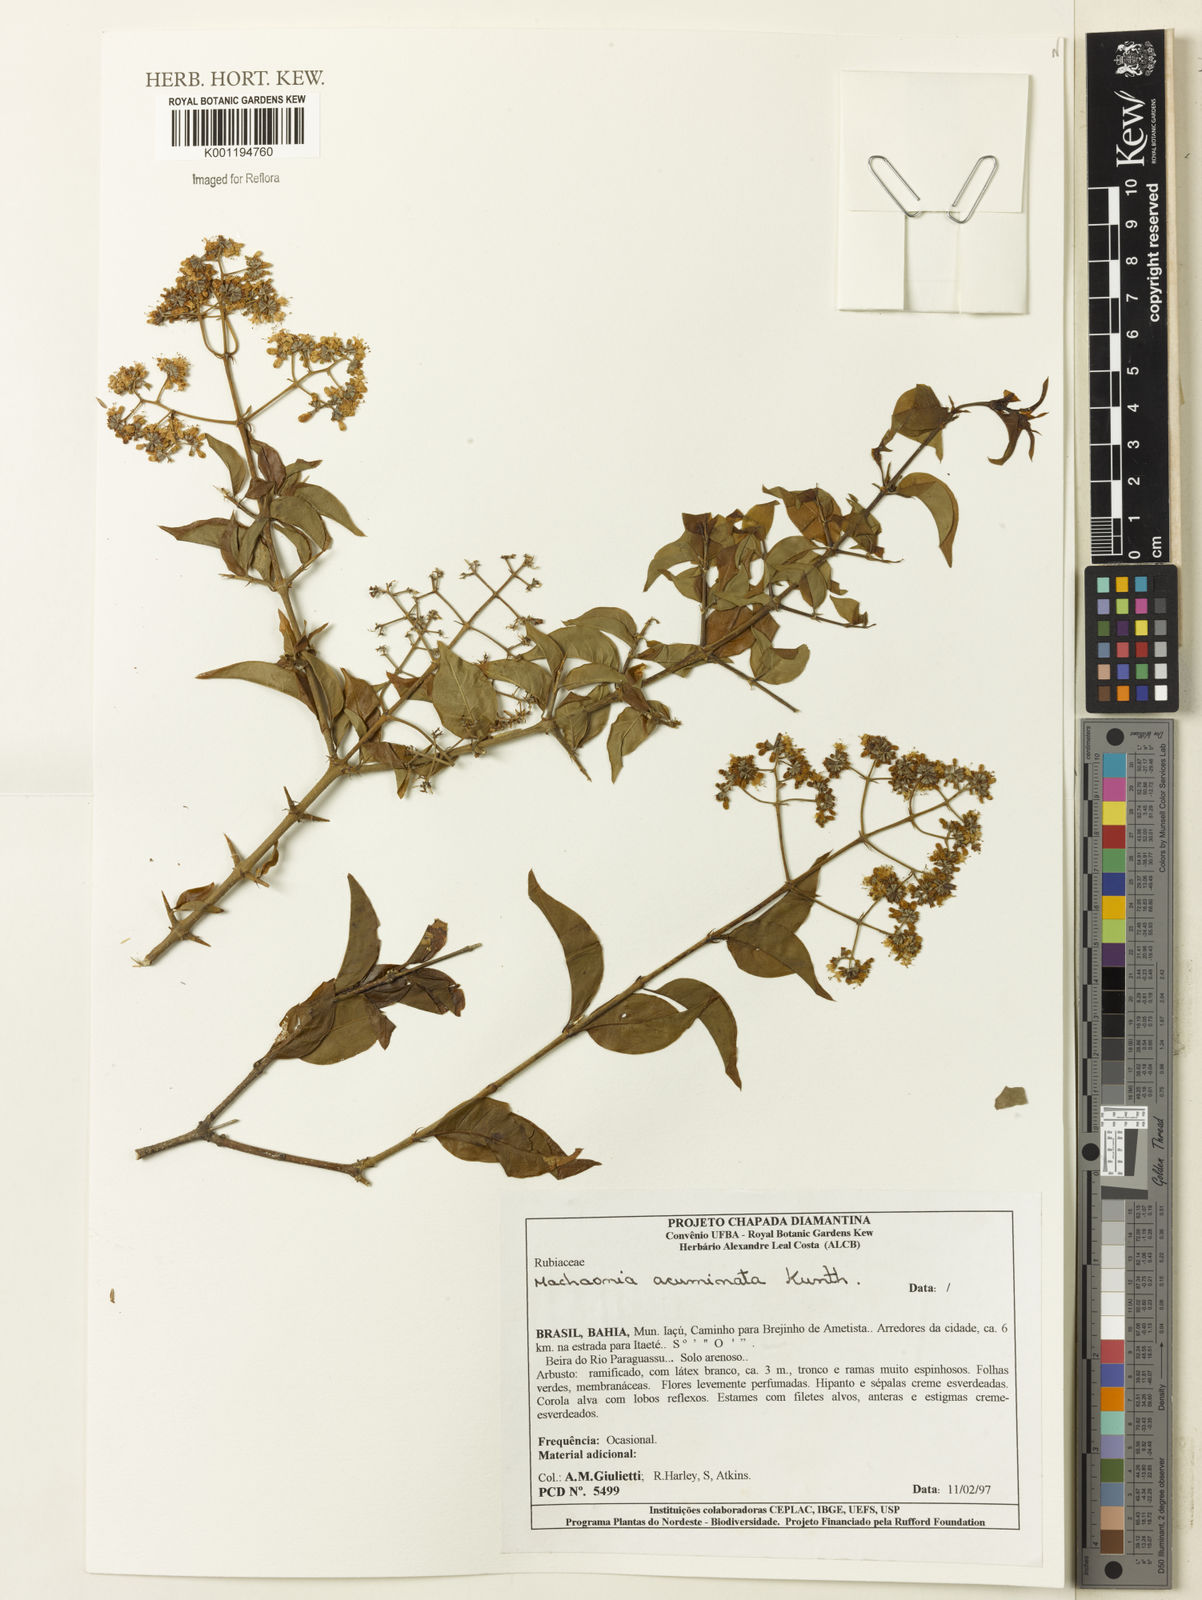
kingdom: Plantae
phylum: Tracheophyta
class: Magnoliopsida
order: Gentianales
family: Rubiaceae
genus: Machaonia
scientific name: Machaonia acuminata
